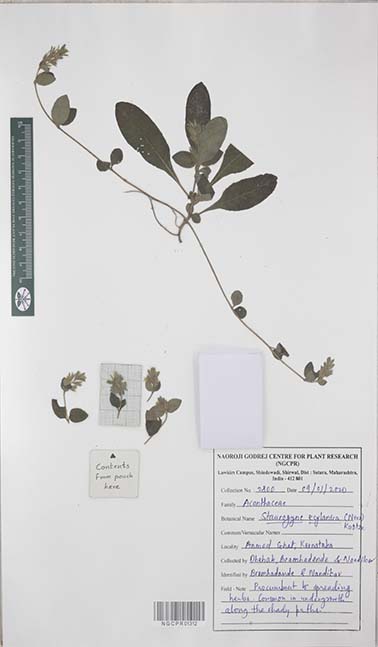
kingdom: Plantae
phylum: Tracheophyta
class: Magnoliopsida
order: Lamiales
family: Acanthaceae
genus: Staurogyne
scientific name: Staurogyne zeylanica
